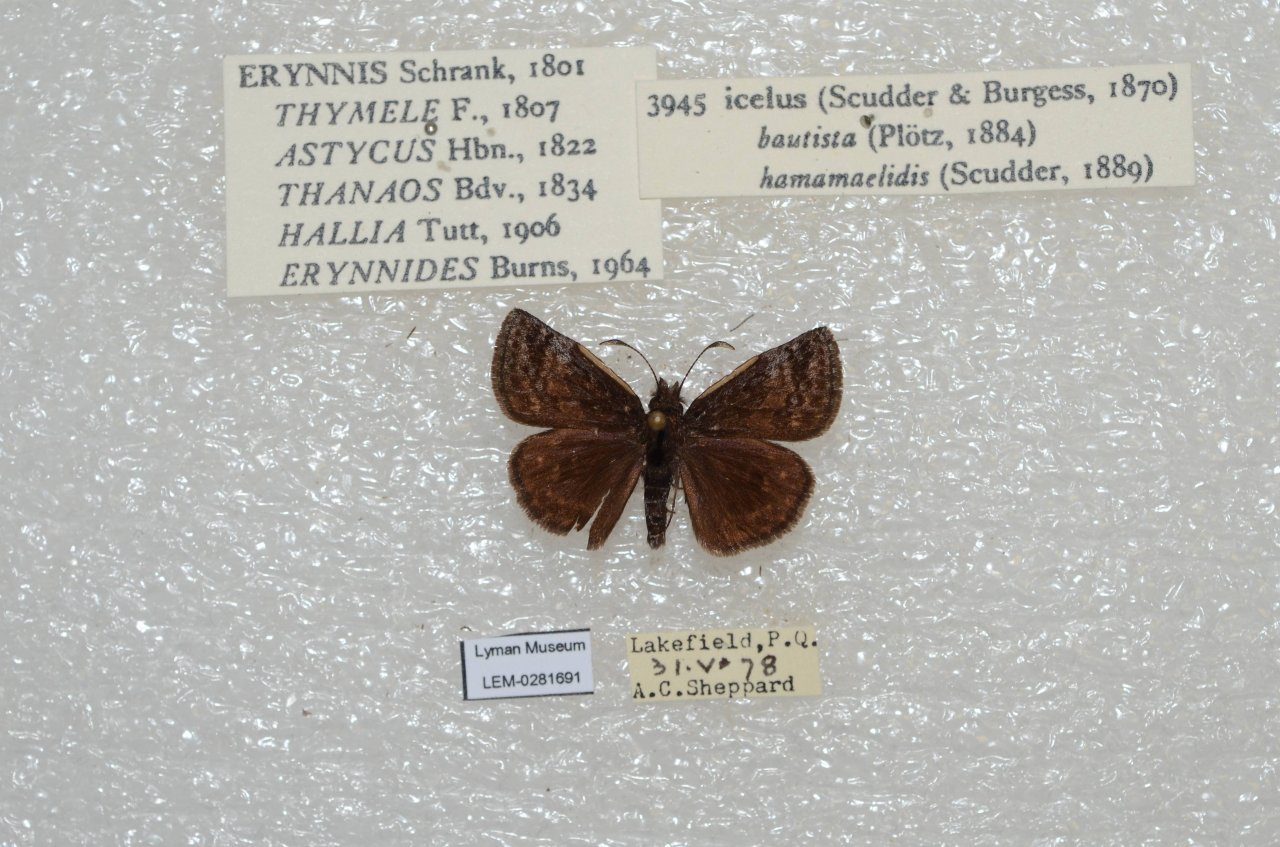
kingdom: Animalia
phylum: Arthropoda
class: Insecta
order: Lepidoptera
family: Hesperiidae
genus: Erynnis
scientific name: Erynnis icelus
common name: Dreamy Duskywing
